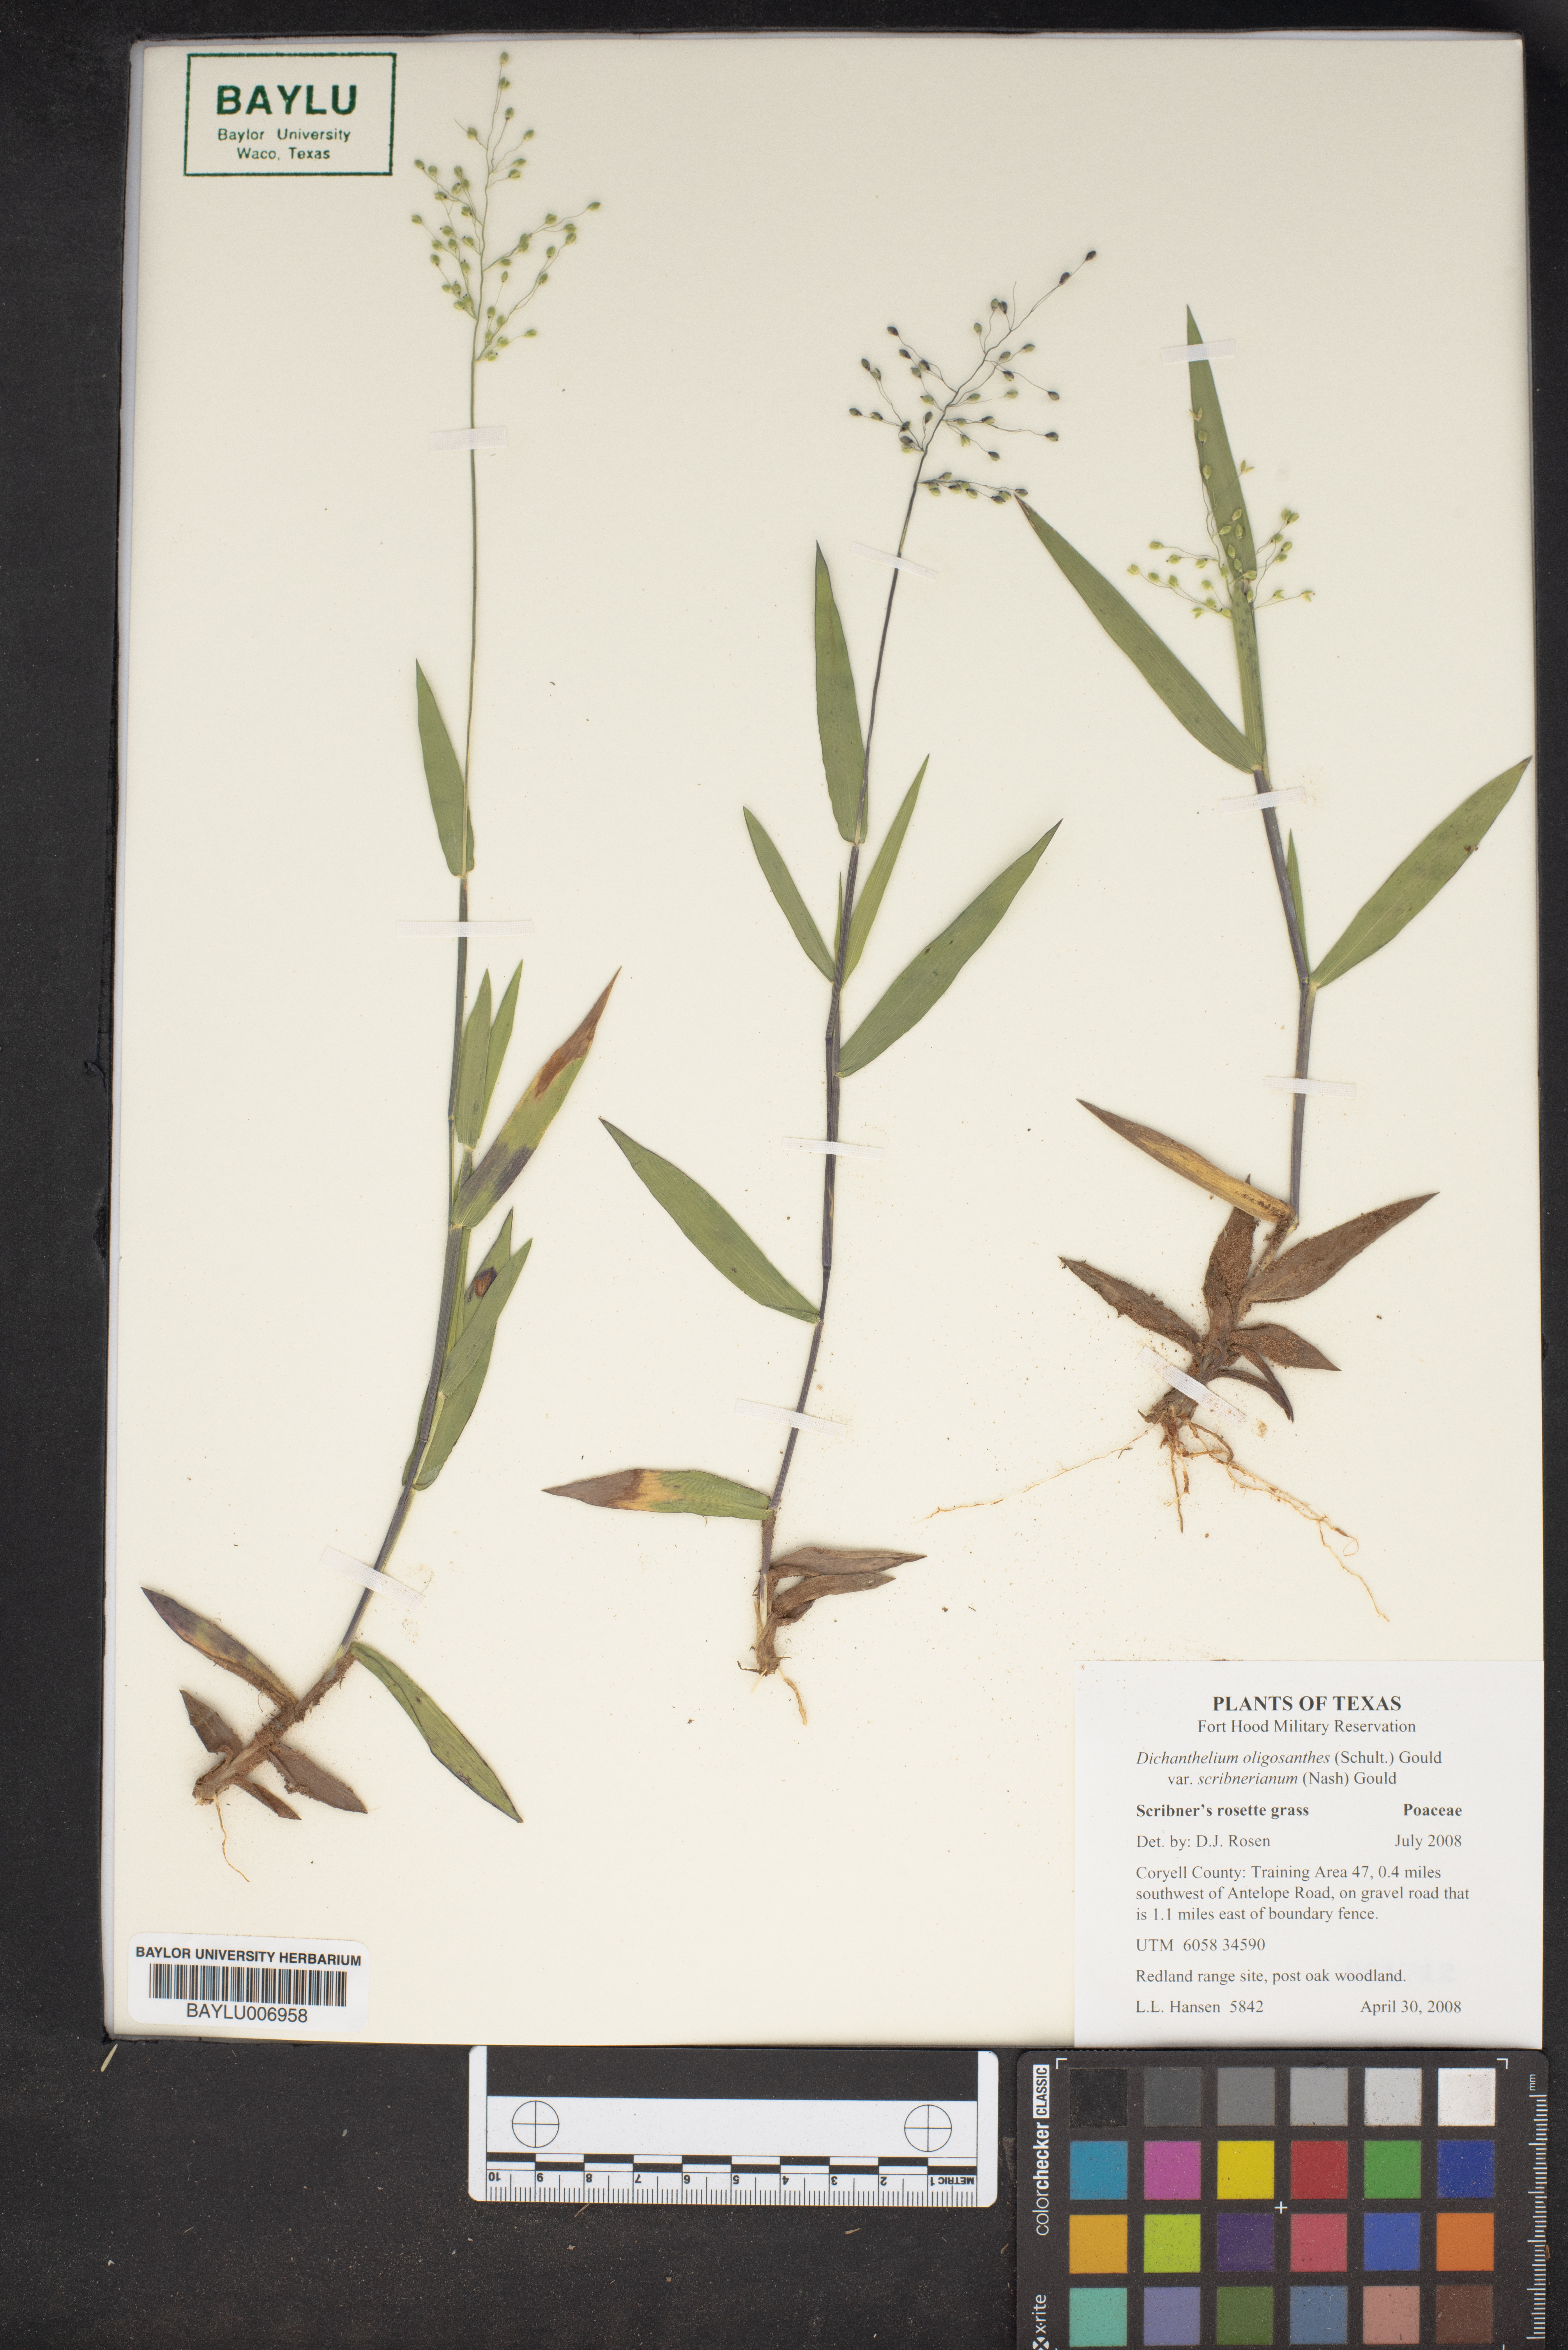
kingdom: Plantae
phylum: Tracheophyta
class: Liliopsida
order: Poales
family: Poaceae
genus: Dichanthelium
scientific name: Dichanthelium scribnerianum
